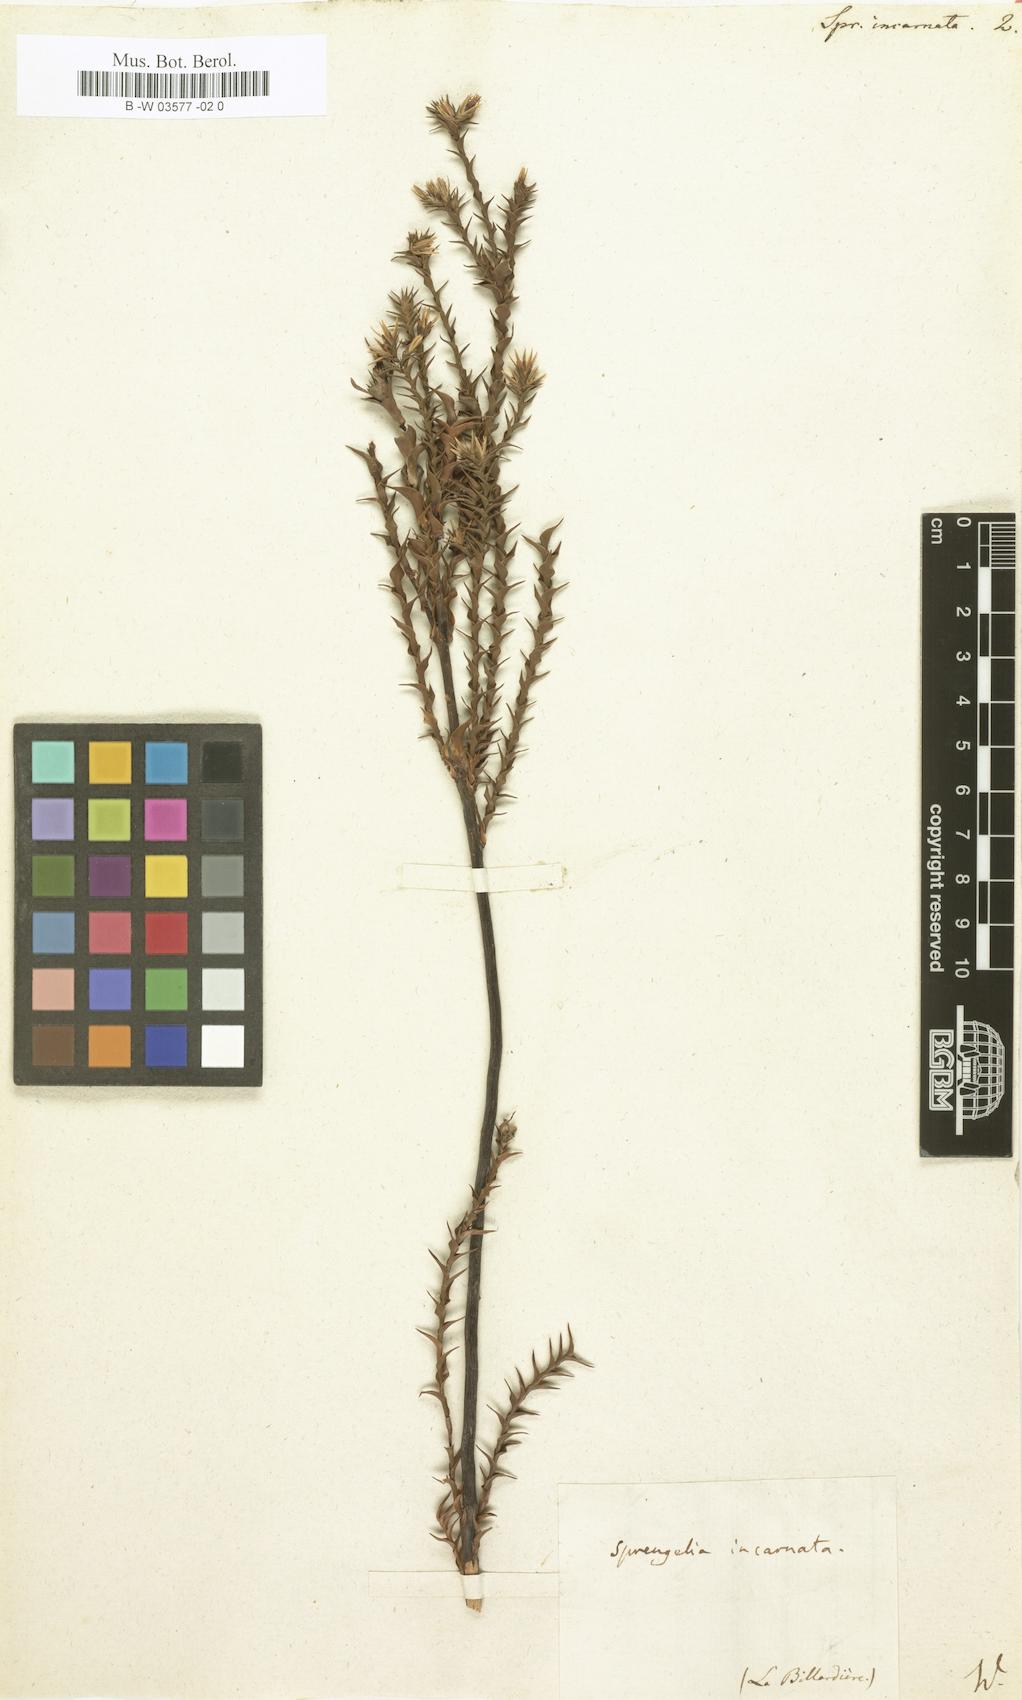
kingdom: Plantae
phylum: Tracheophyta
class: Magnoliopsida
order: Ericales
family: Ericaceae
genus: Sprengelia
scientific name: Sprengelia incarnata
